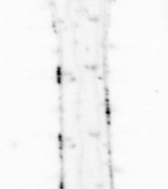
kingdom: Animalia
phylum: Chaetognatha
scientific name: Chaetognatha
